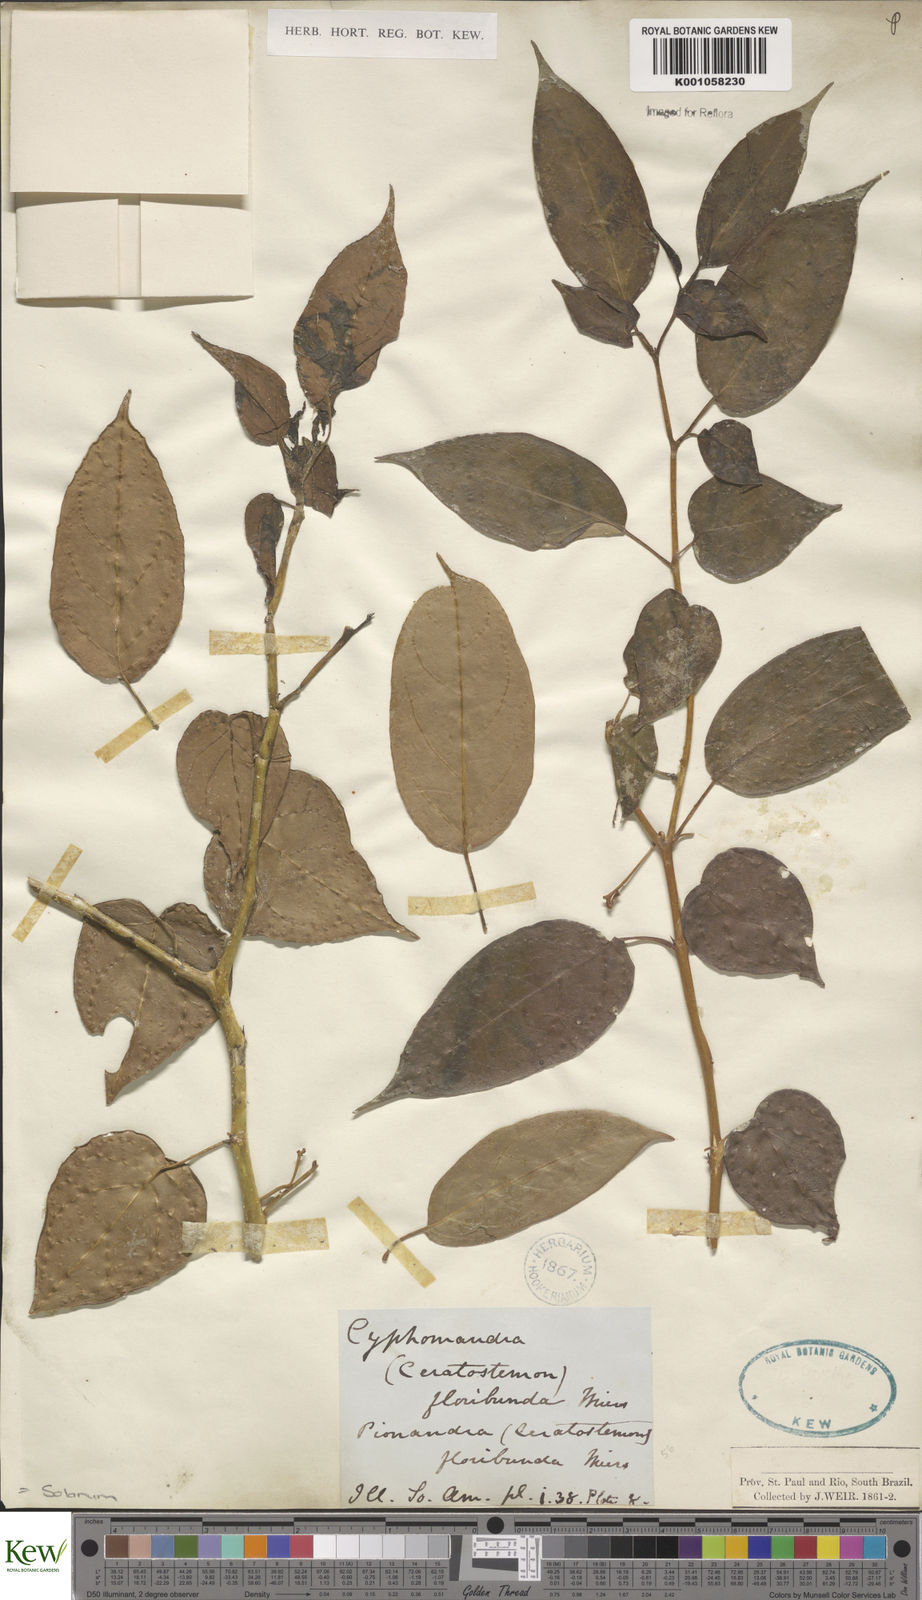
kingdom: Plantae
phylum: Tracheophyta
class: Magnoliopsida
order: Solanales
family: Solanaceae
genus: Solanum
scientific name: Solanum diploconos
